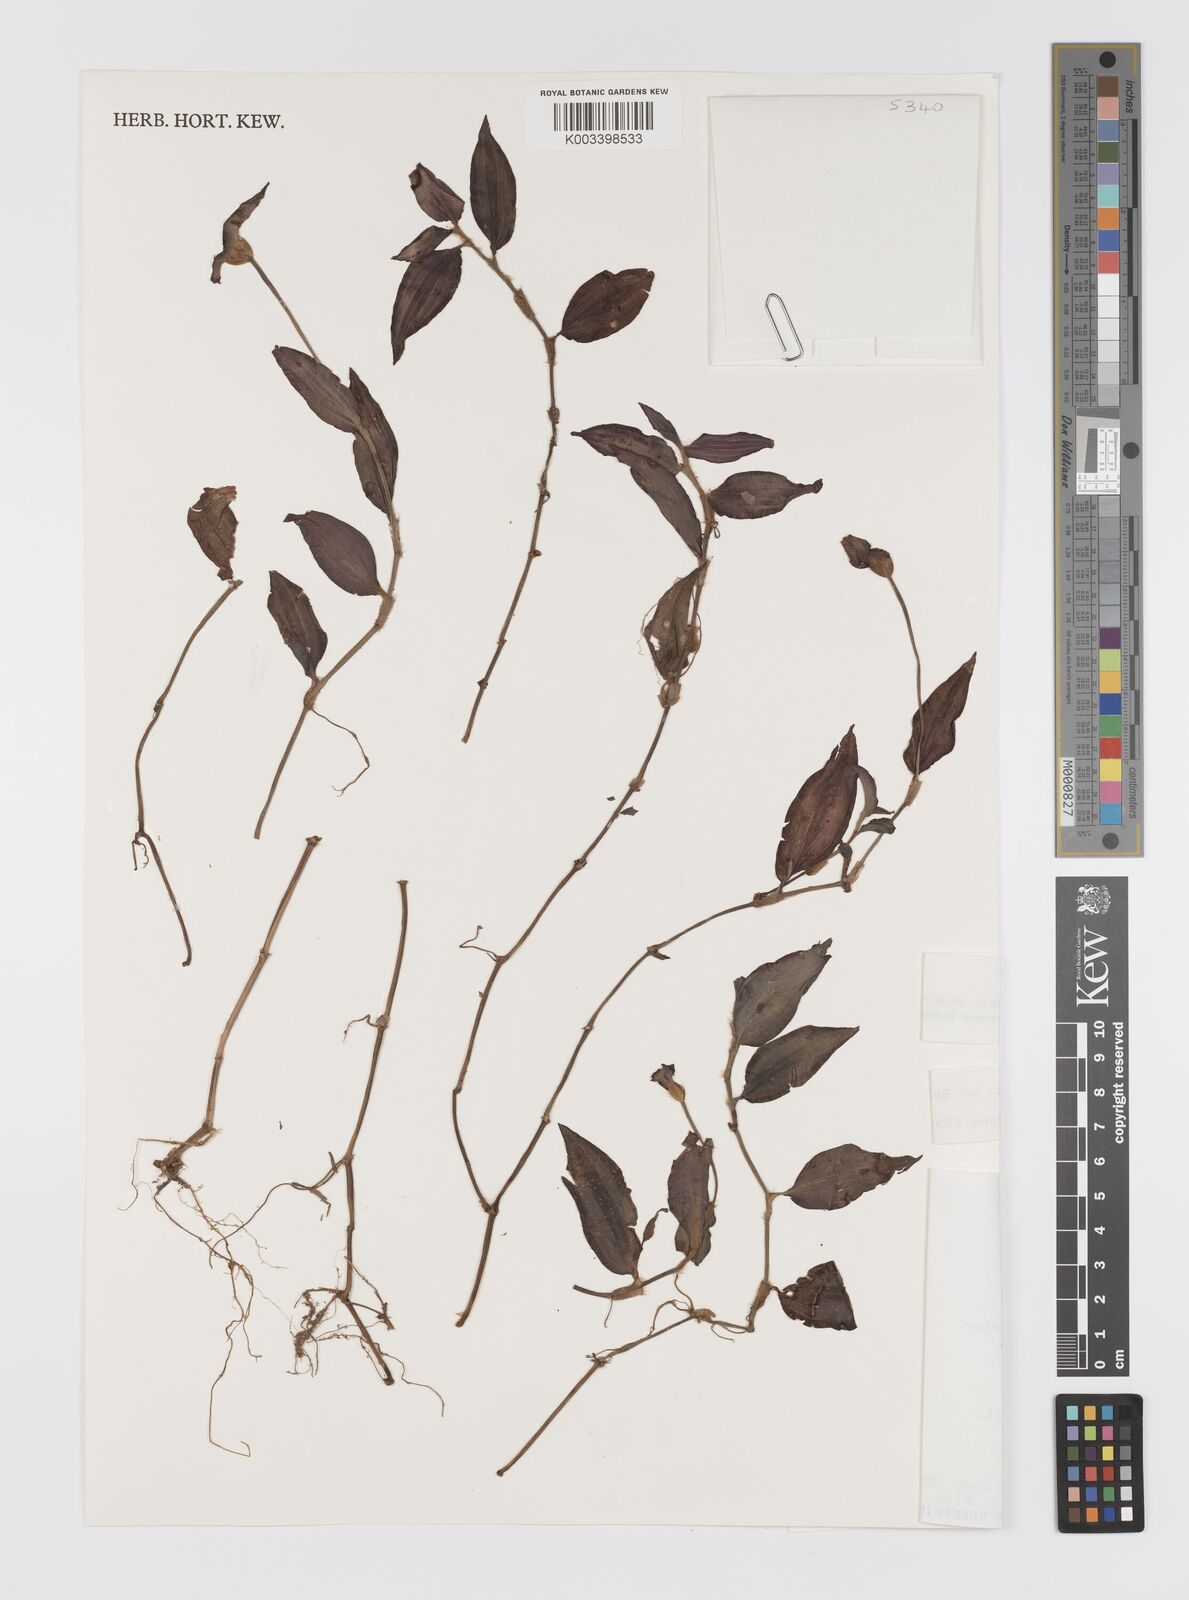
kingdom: Plantae
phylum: Tracheophyta
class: Liliopsida
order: Commelinales
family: Commelinaceae
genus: Tradescantia
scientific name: Tradescantia zebrina
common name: Inchplant
